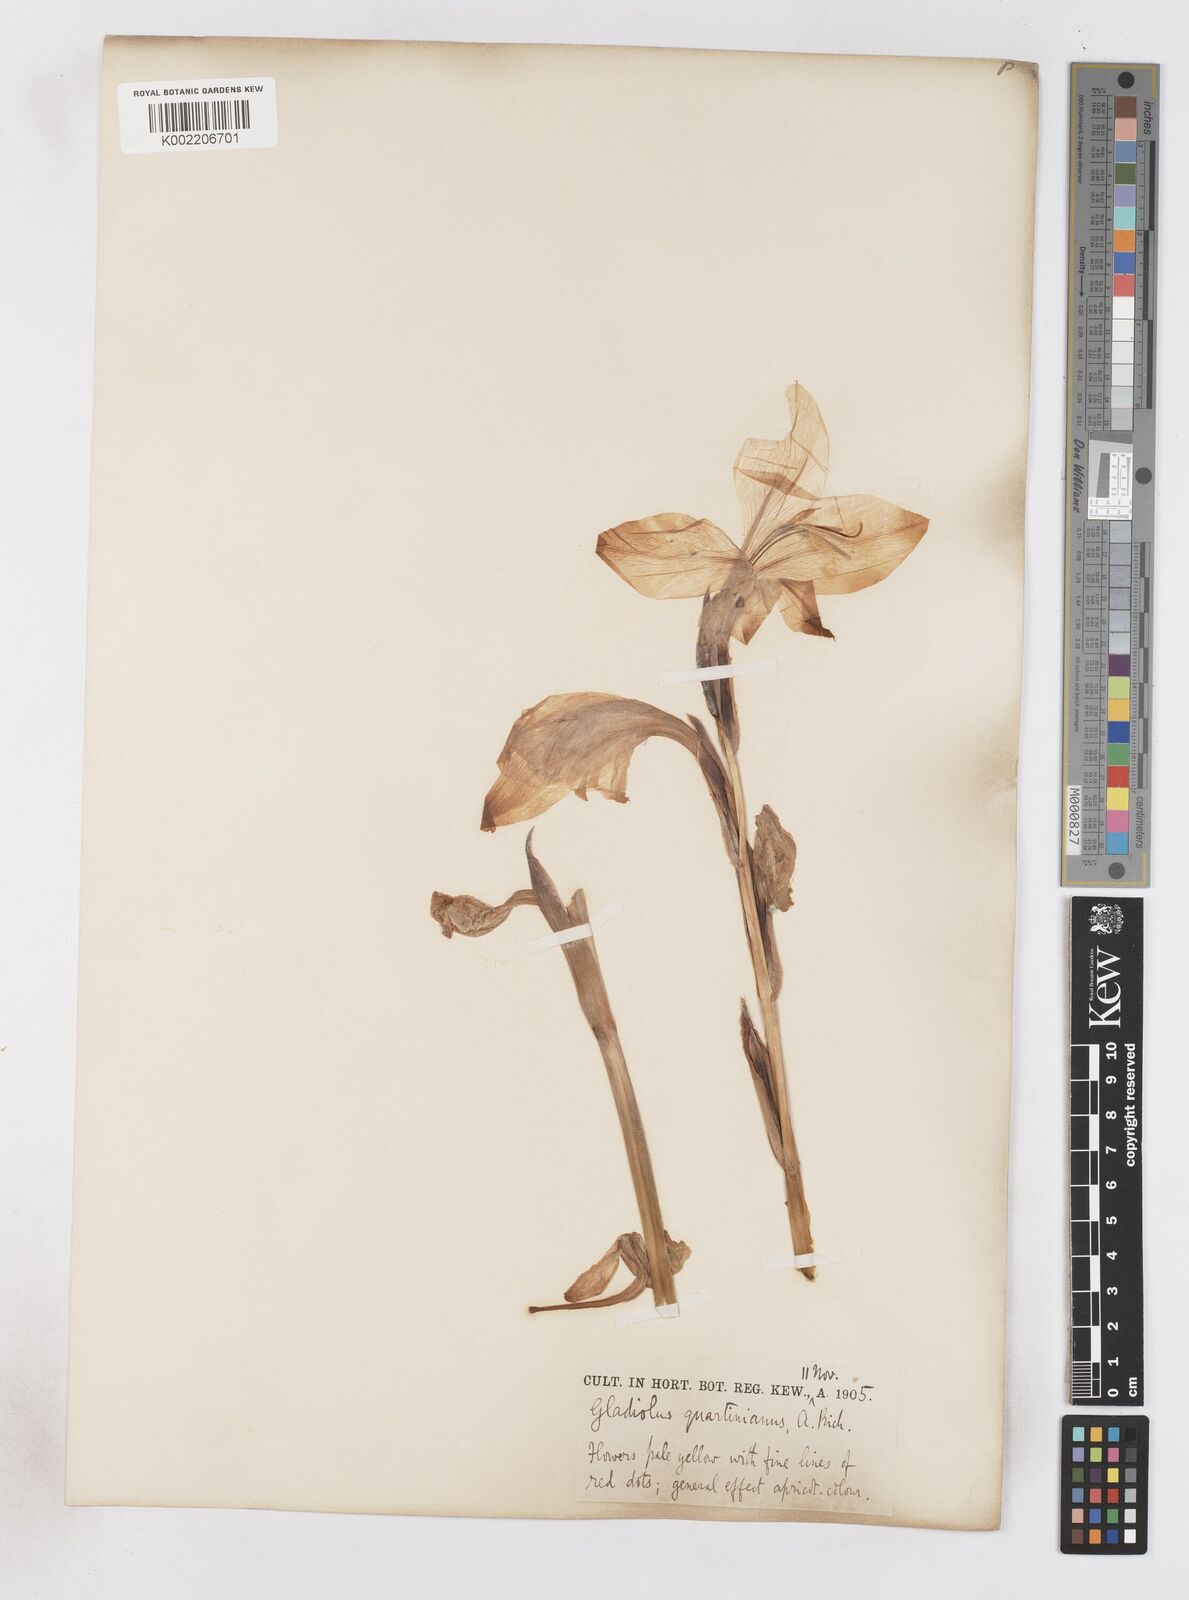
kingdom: Plantae
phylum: Tracheophyta
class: Liliopsida
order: Asparagales
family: Iridaceae
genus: Gladiolus
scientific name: Gladiolus dalenii
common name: Cornflag
